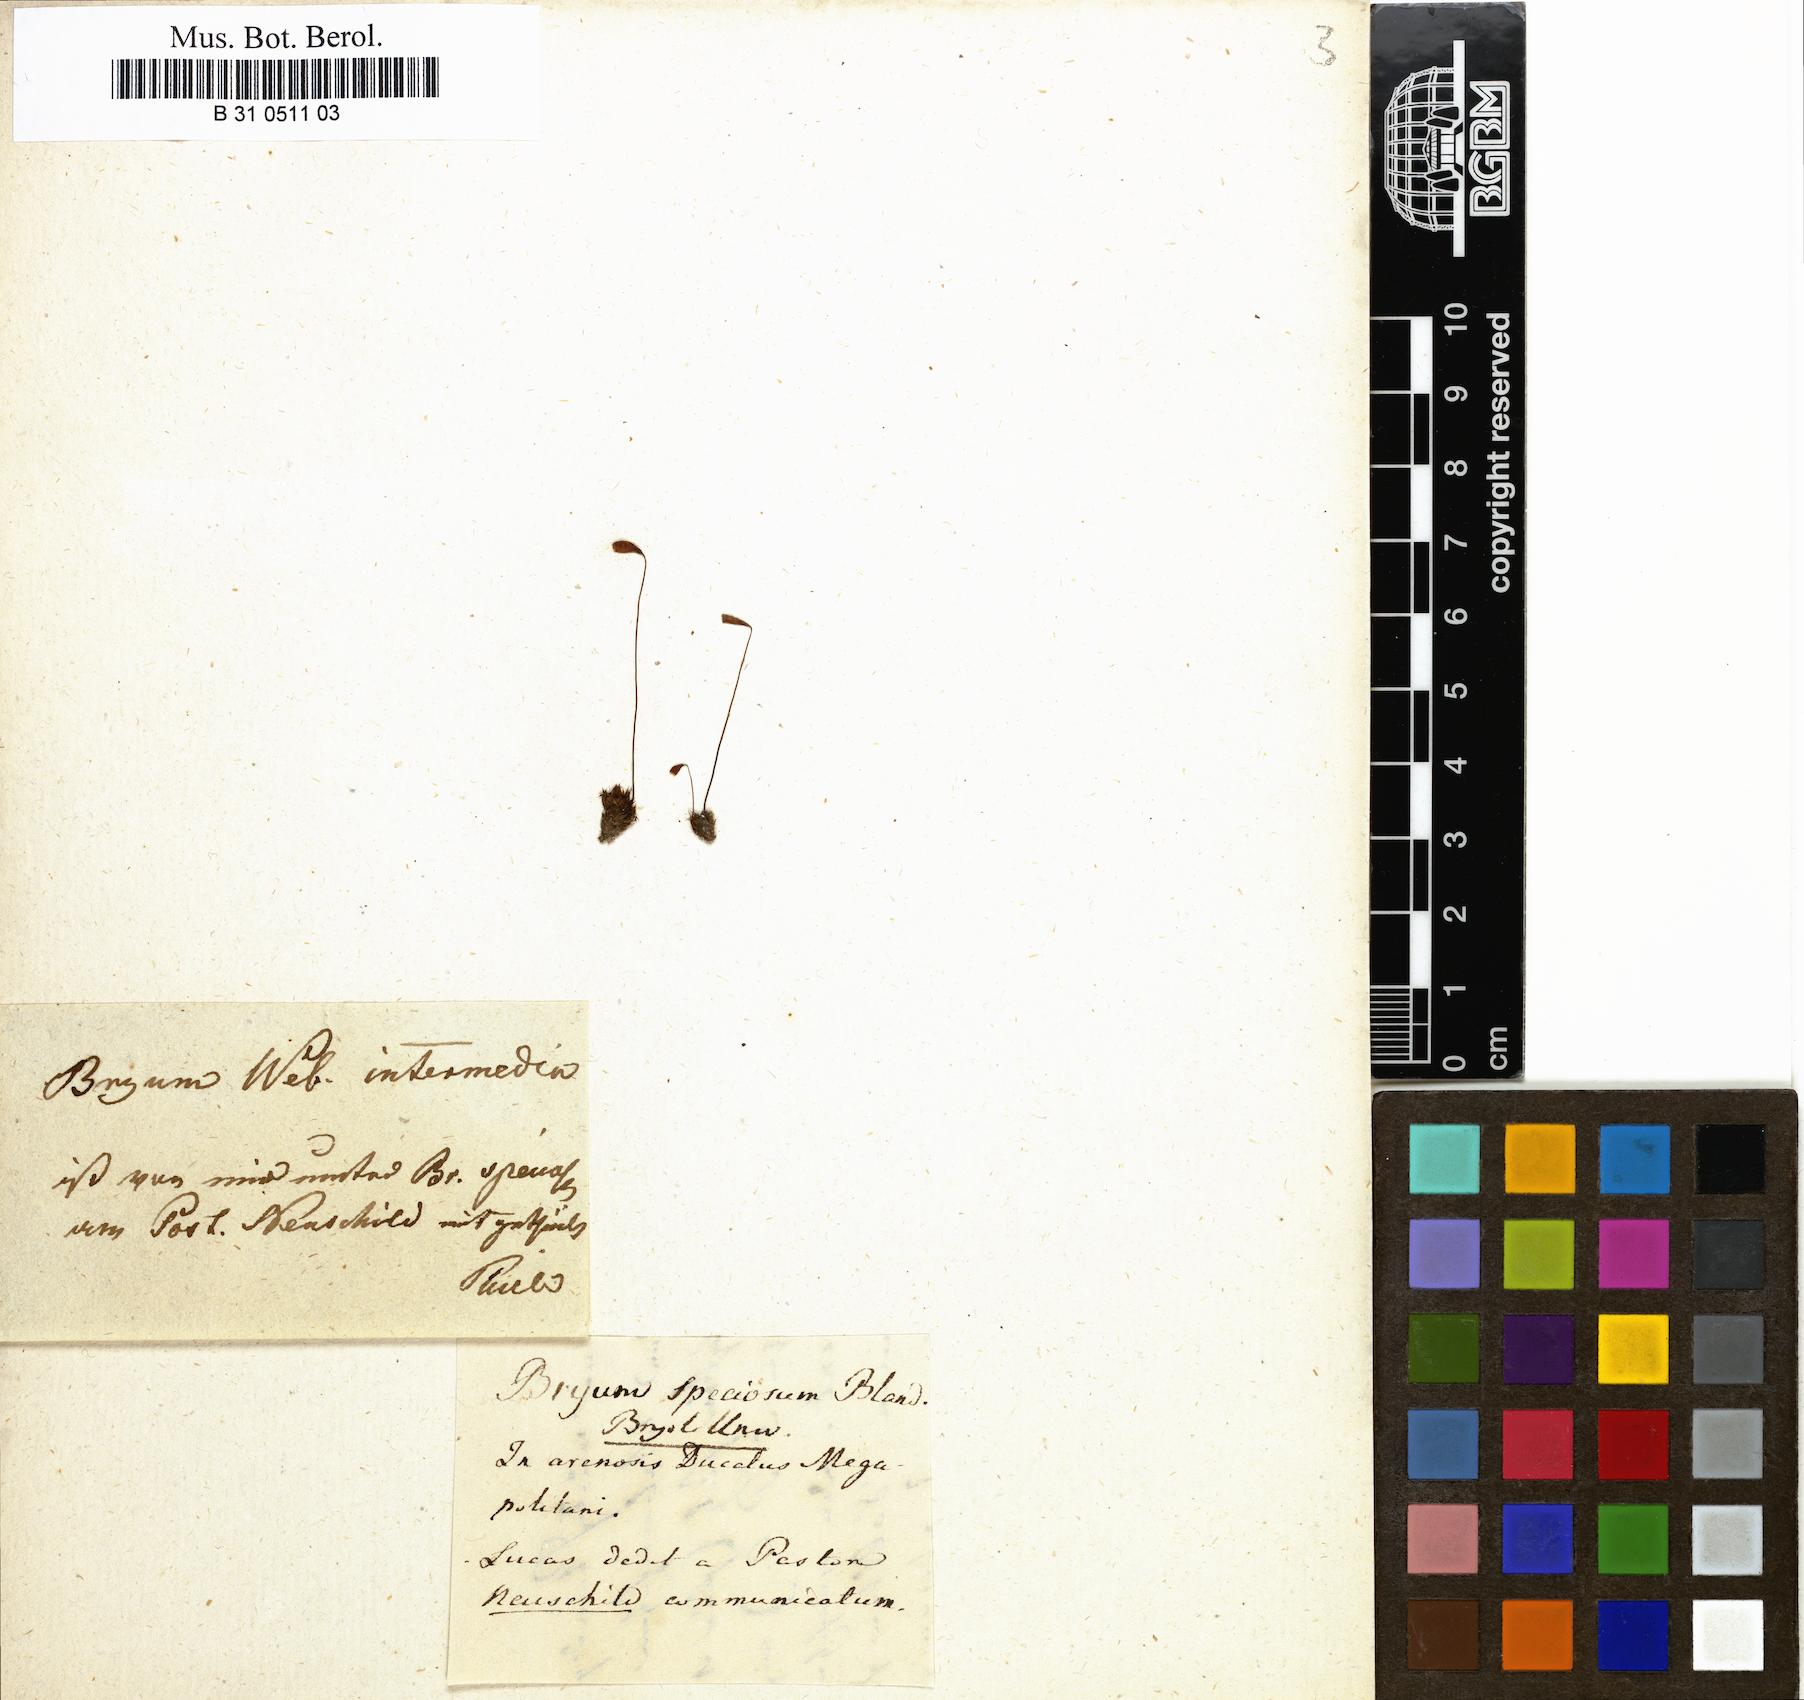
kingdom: Plantae
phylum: Bryophyta
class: Bryopsida
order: Bryales
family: Bryaceae
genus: Ptychostomum
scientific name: Ptychostomum intermedium
